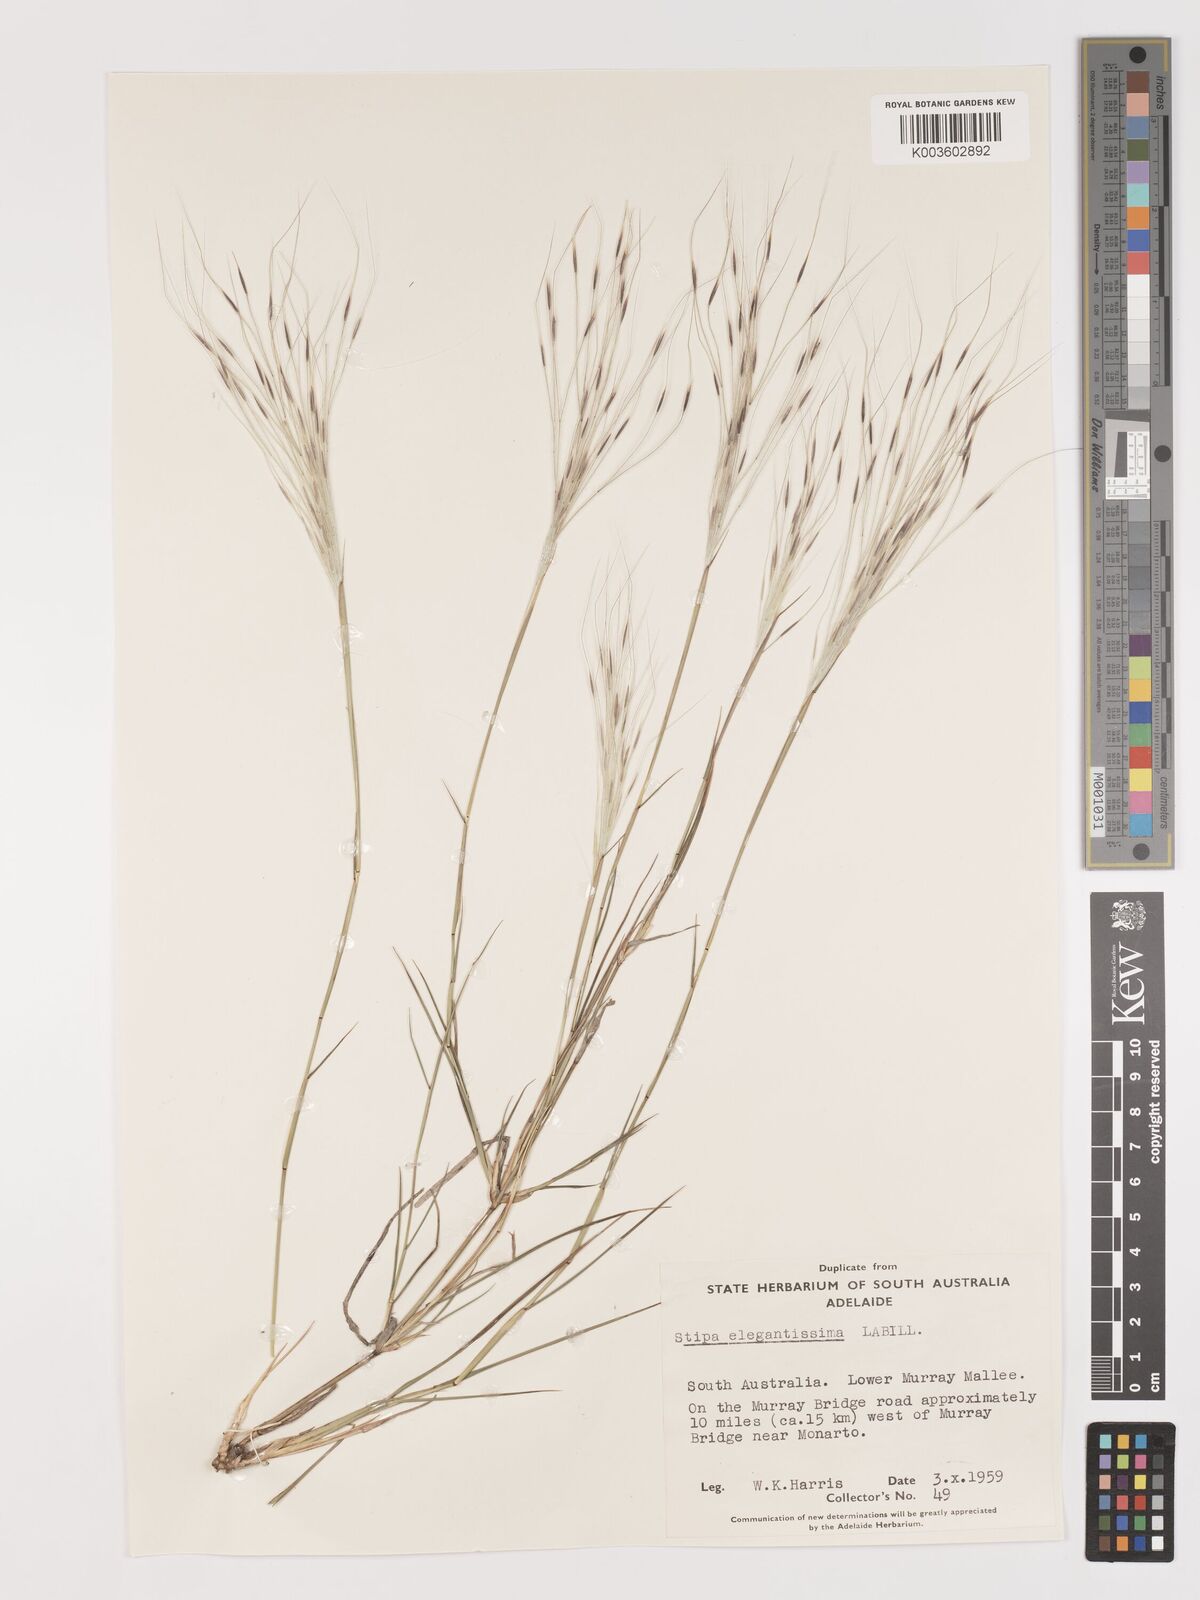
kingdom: Plantae
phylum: Tracheophyta
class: Liliopsida
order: Poales
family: Poaceae
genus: Austrostipa
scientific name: Austrostipa elegantissima
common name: Feather spear grass
